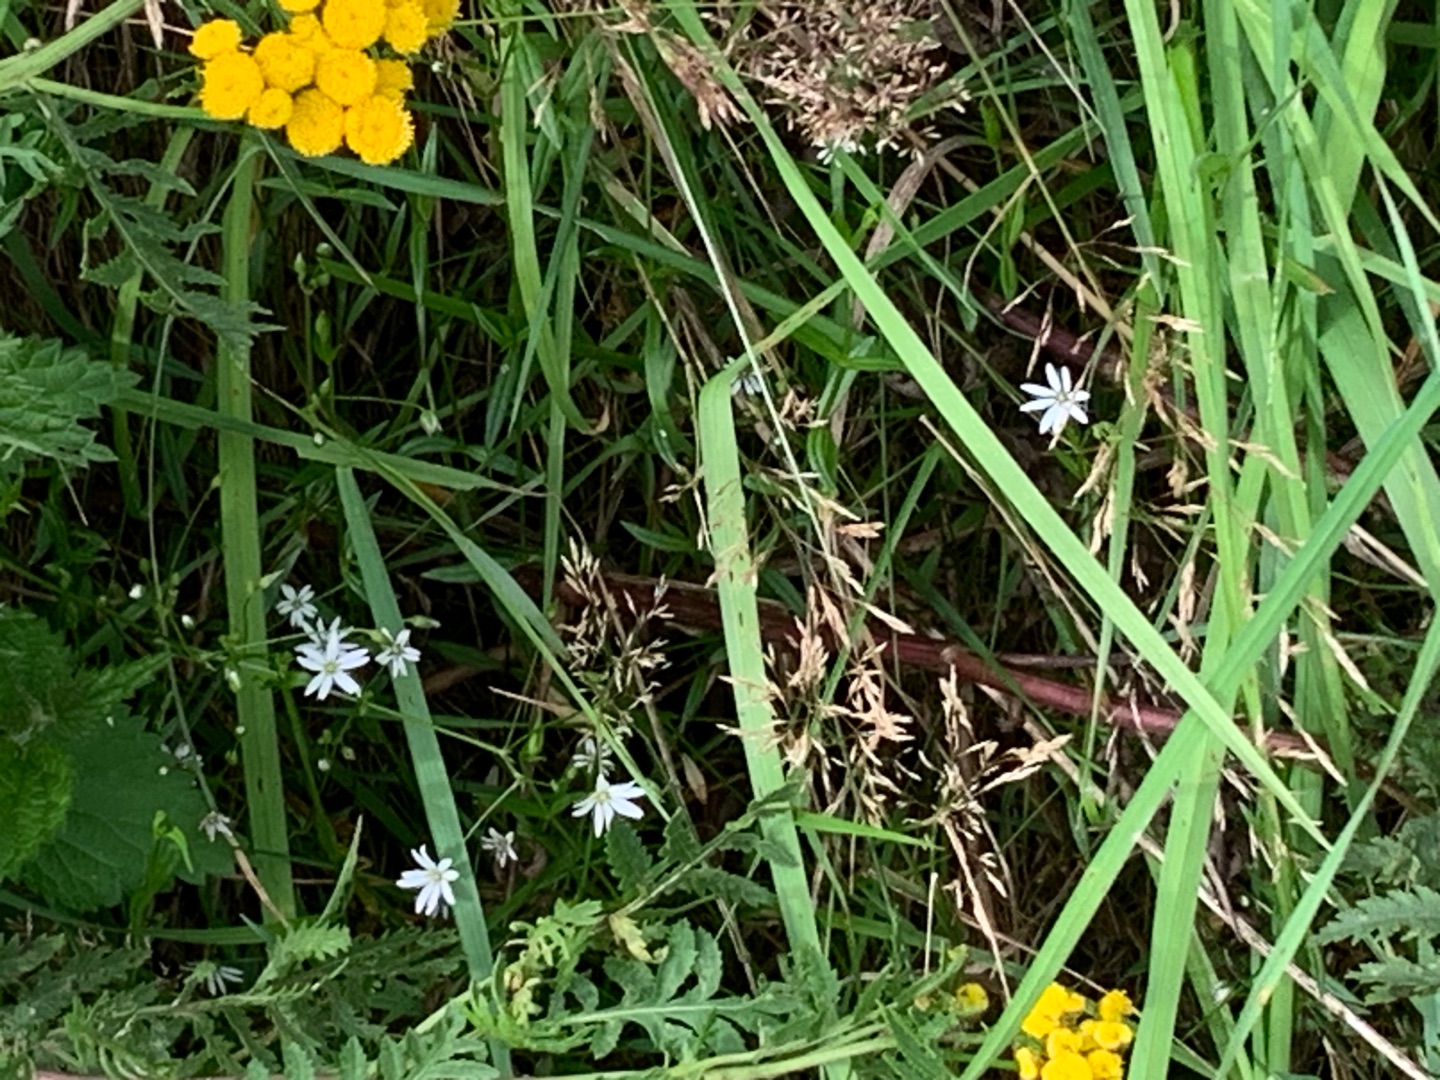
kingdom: Plantae
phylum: Tracheophyta
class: Magnoliopsida
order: Caryophyllales
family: Caryophyllaceae
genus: Stellaria
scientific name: Stellaria graminea
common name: Græsbladet fladstjerne
